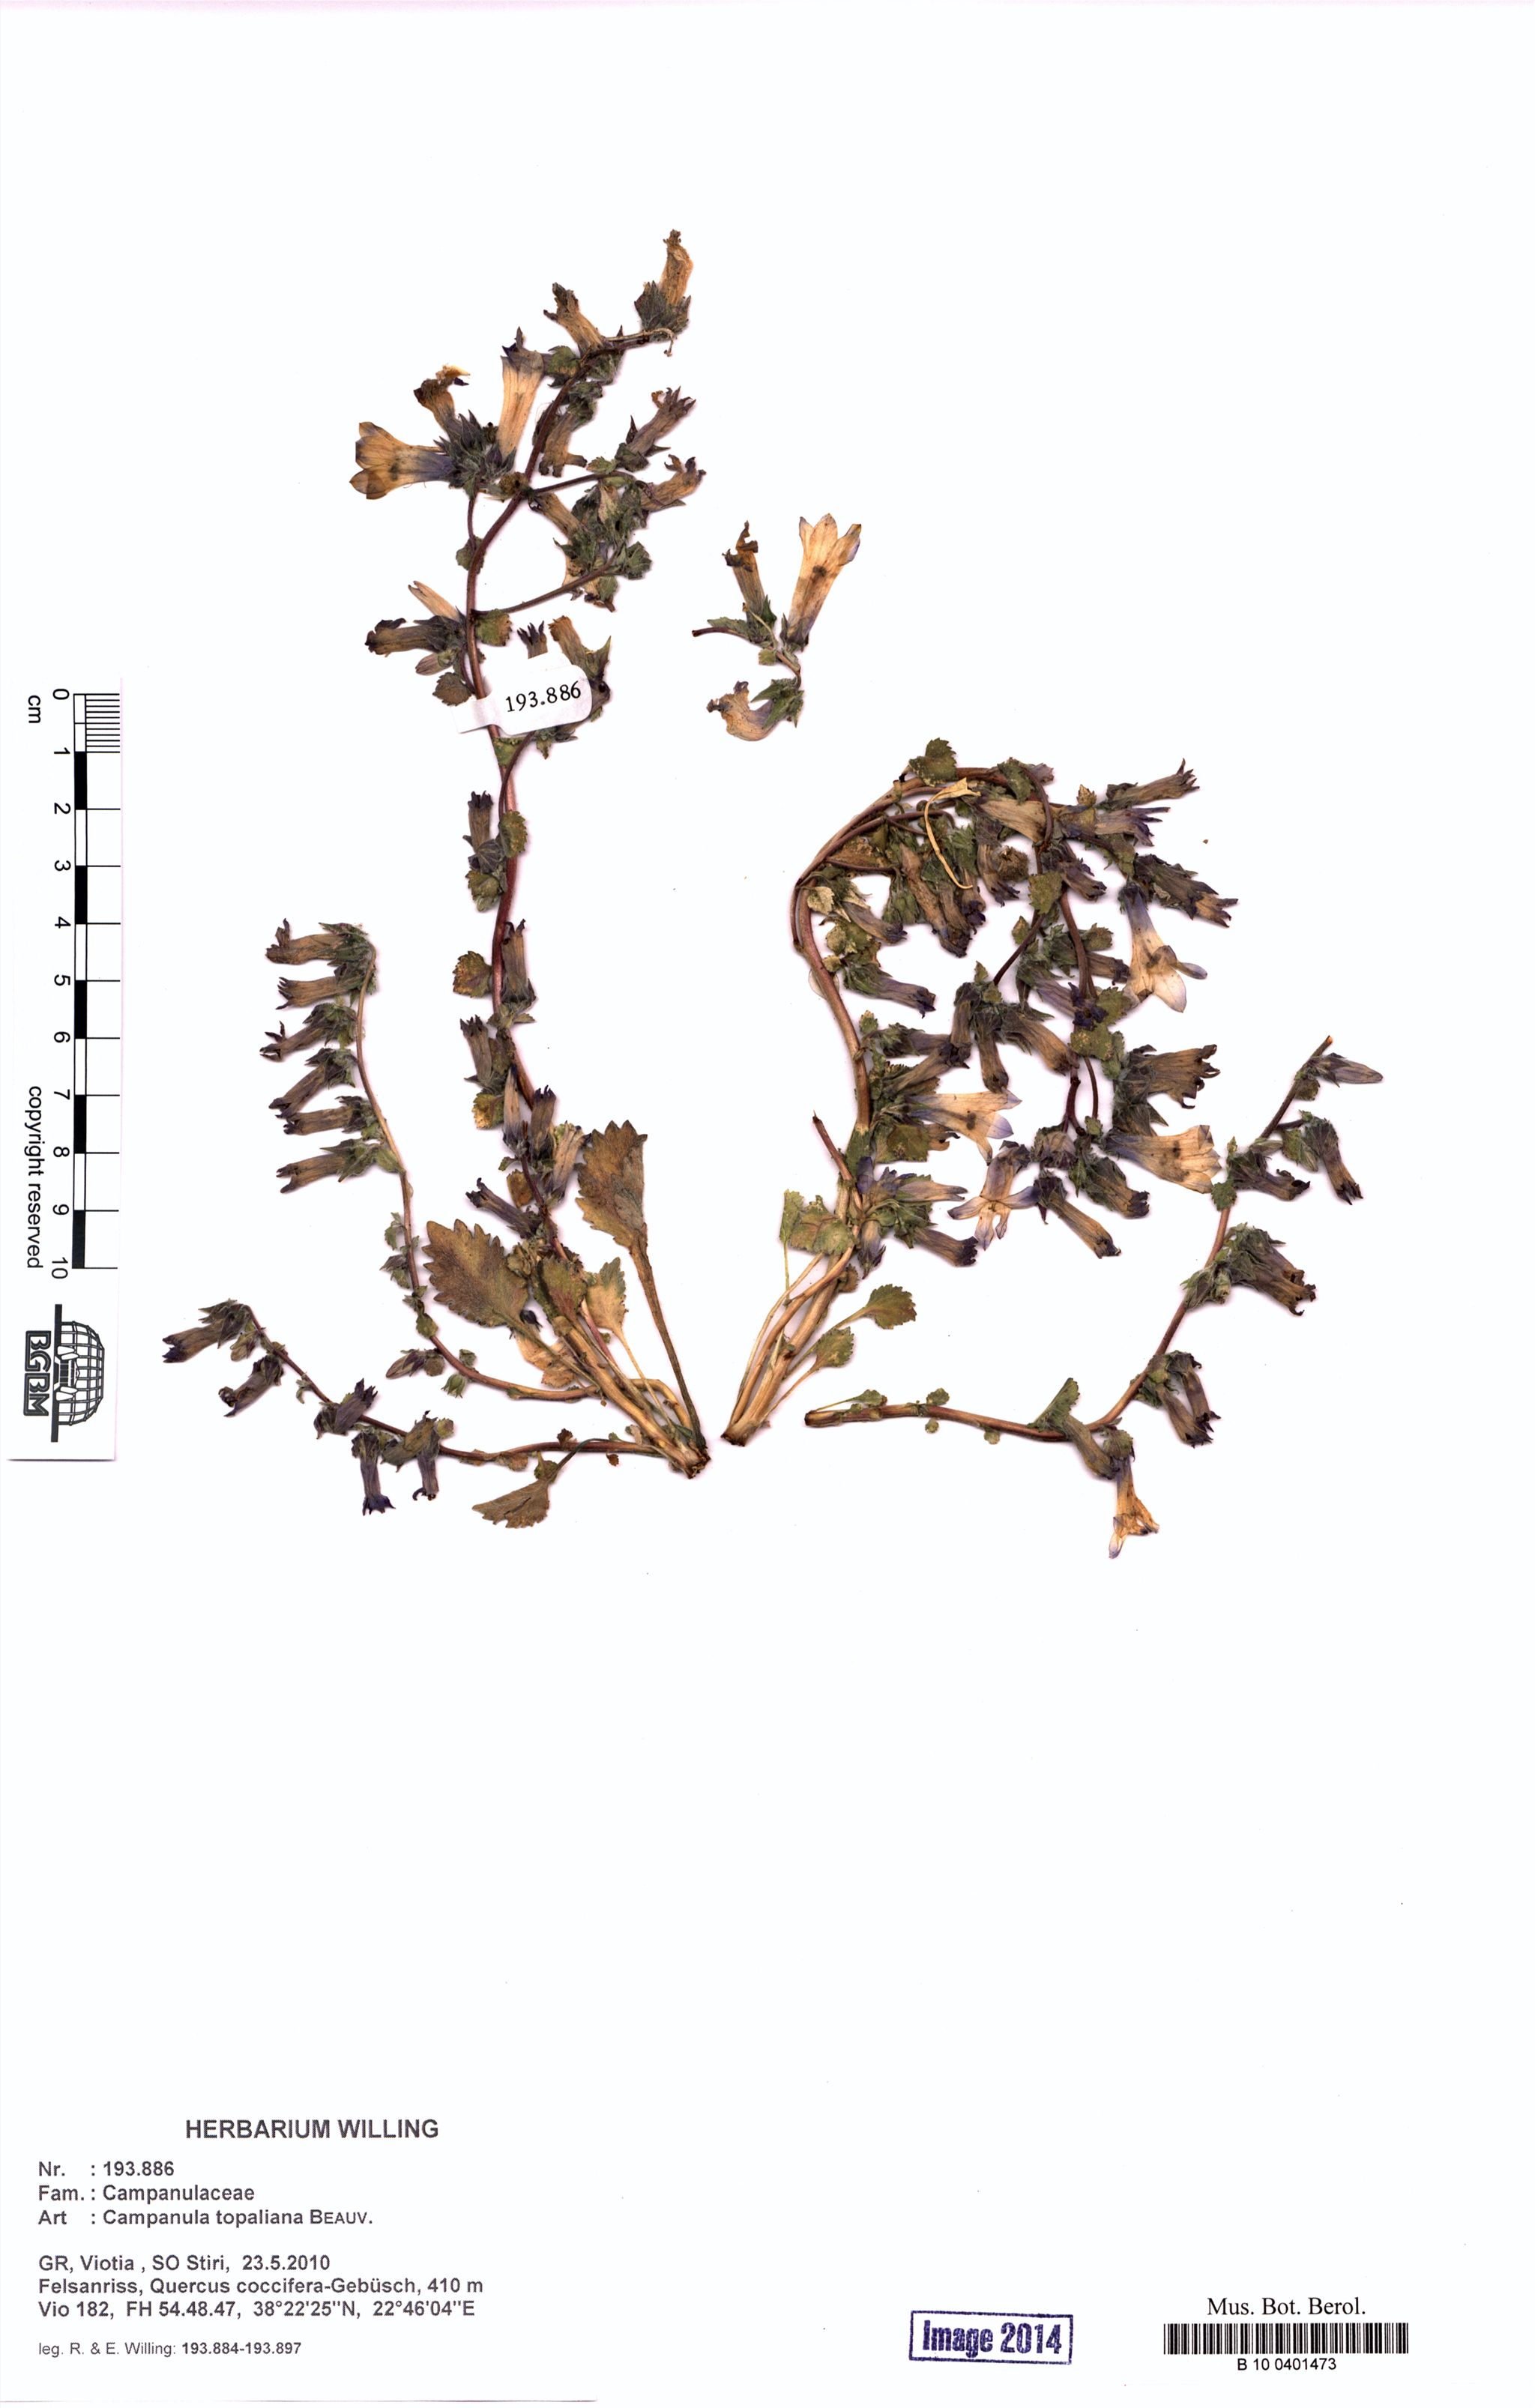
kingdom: Plantae
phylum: Tracheophyta
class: Magnoliopsida
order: Asterales
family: Campanulaceae
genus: Campanula
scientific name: Campanula topaliana
